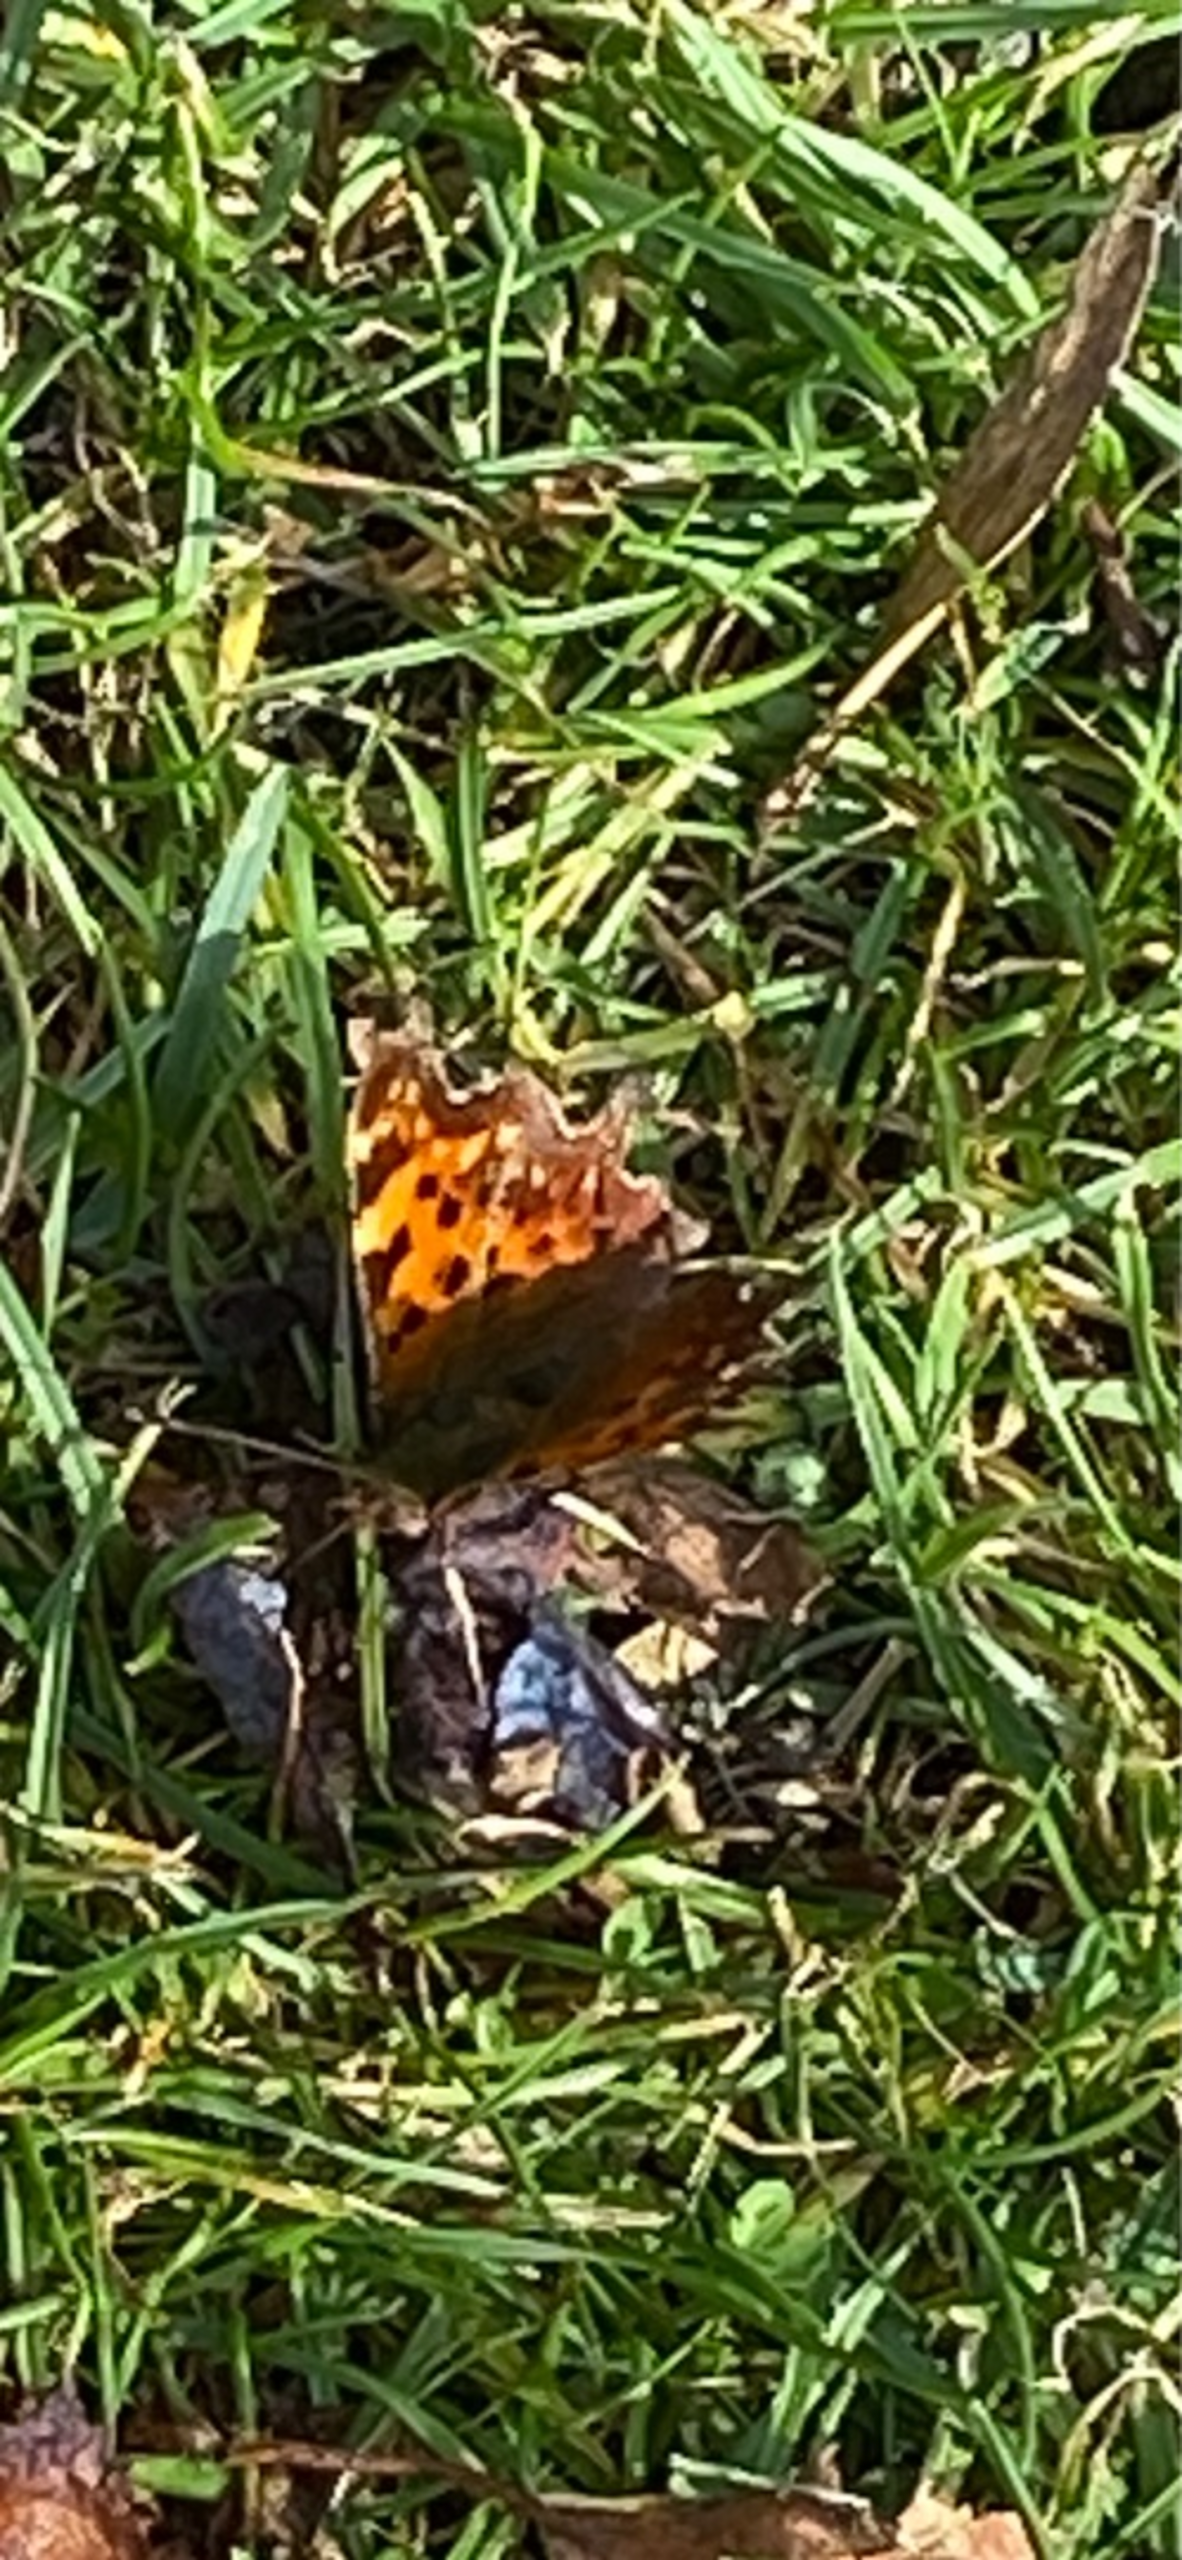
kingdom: Animalia
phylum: Arthropoda
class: Insecta
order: Lepidoptera
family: Nymphalidae
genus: Polygonia
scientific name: Polygonia c-album
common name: Det hvide C
